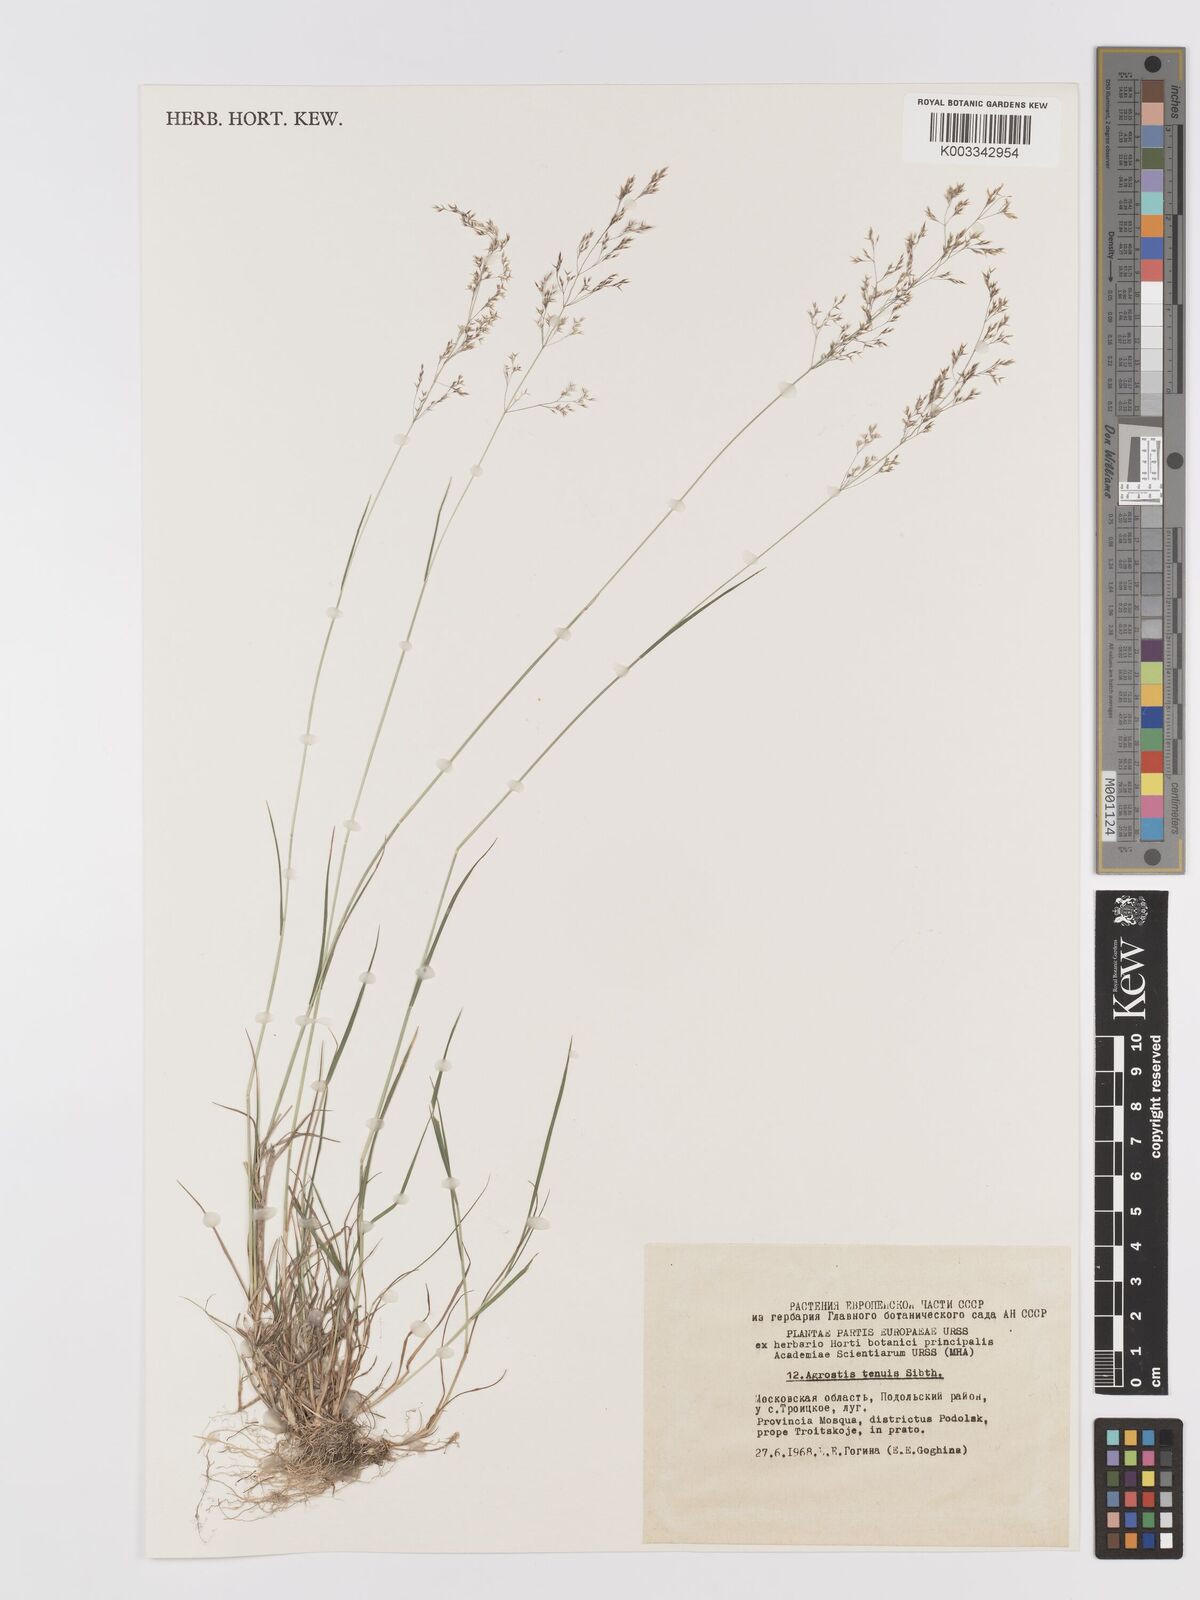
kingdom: Plantae
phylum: Tracheophyta
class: Liliopsida
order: Poales
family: Poaceae
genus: Agrostis
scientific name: Agrostis capillaris
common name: Colonial bentgrass
